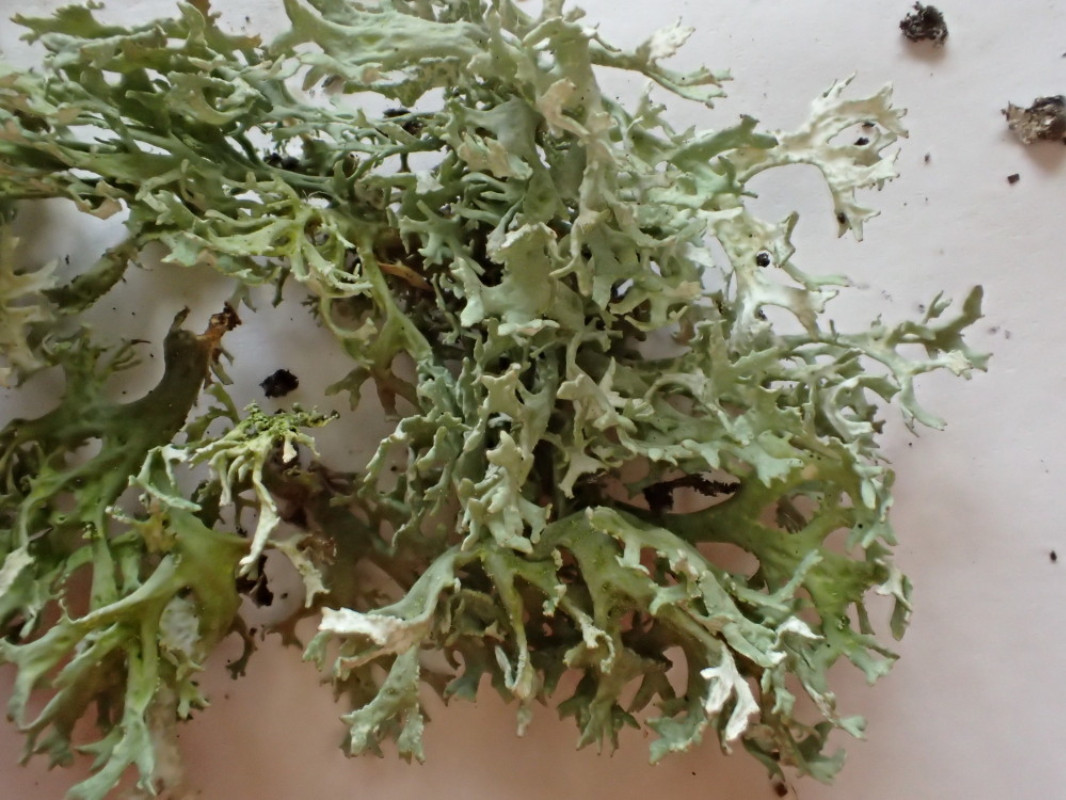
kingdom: Fungi
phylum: Ascomycota
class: Lecanoromycetes
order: Lecanorales
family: Parmeliaceae
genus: Evernia
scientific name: Evernia prunastri
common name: almindelig slåenlav
